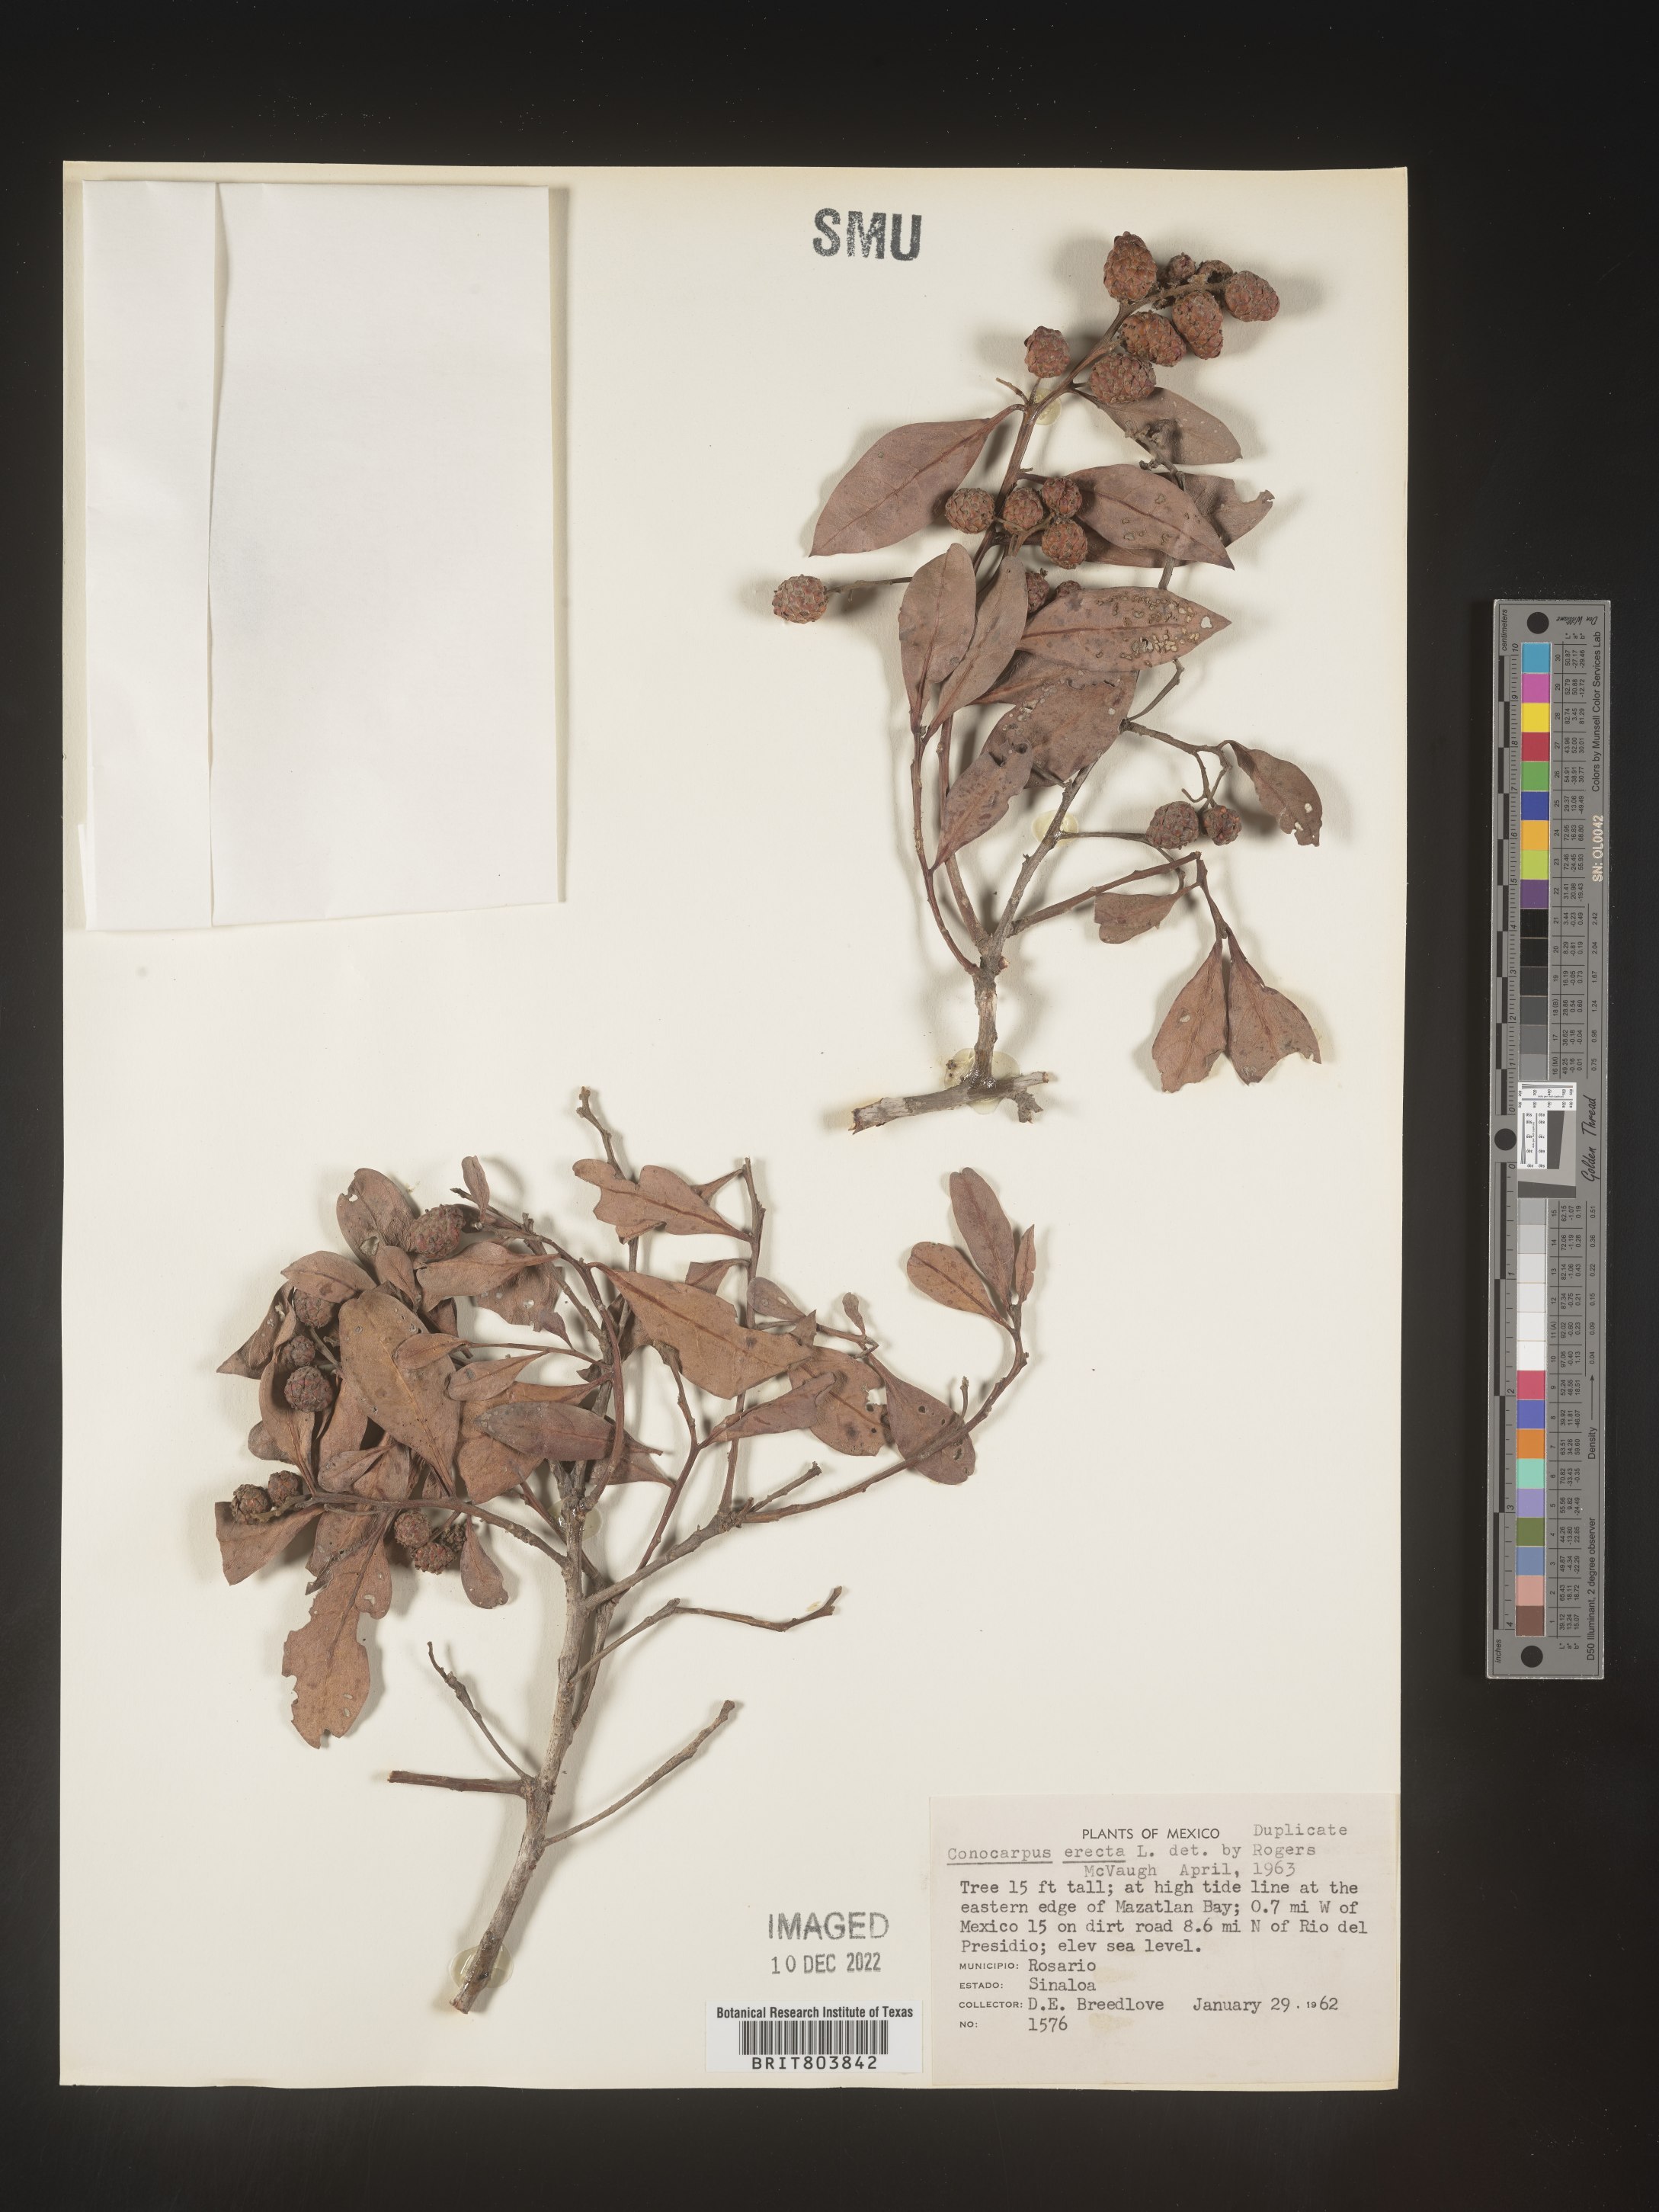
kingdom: Plantae
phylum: Tracheophyta
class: Magnoliopsida
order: Myrtales
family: Combretaceae
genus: Conocarpus
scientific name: Conocarpus
